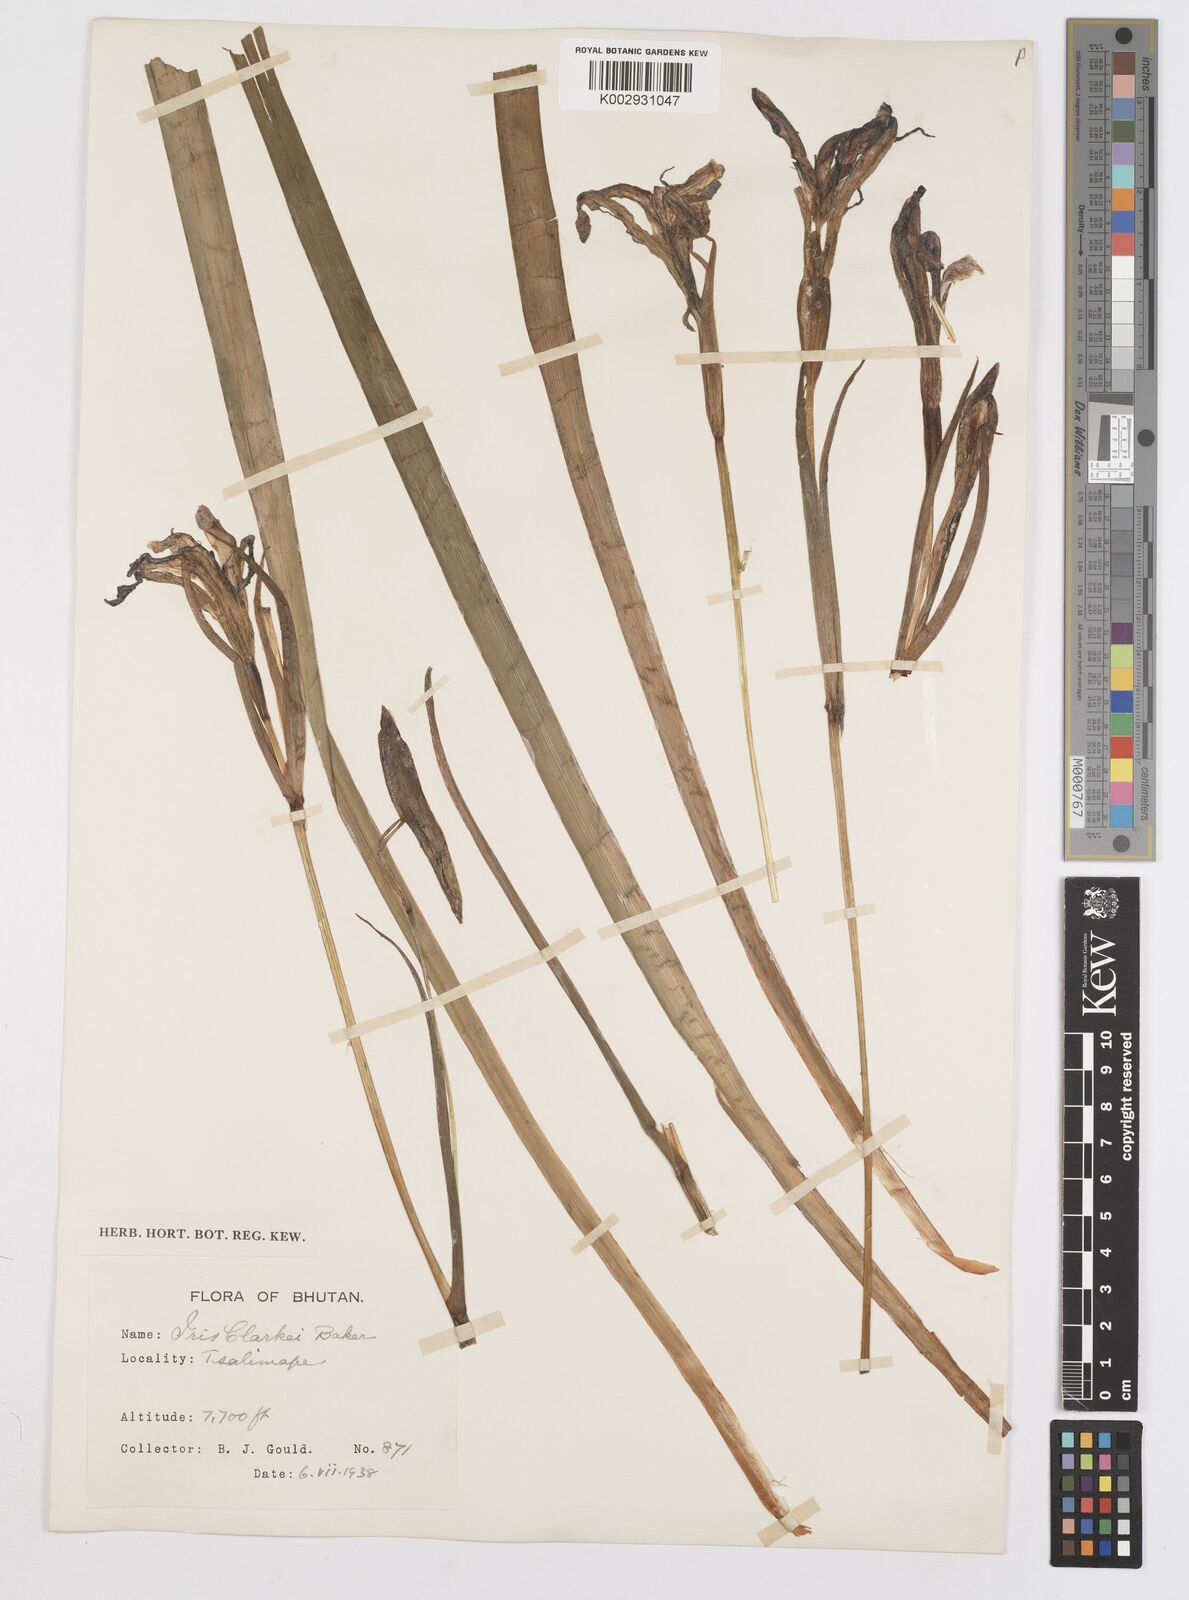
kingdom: Plantae
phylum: Tracheophyta
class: Liliopsida
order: Asparagales
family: Iridaceae
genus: Iris
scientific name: Iris clarkei
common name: Tibet iris
